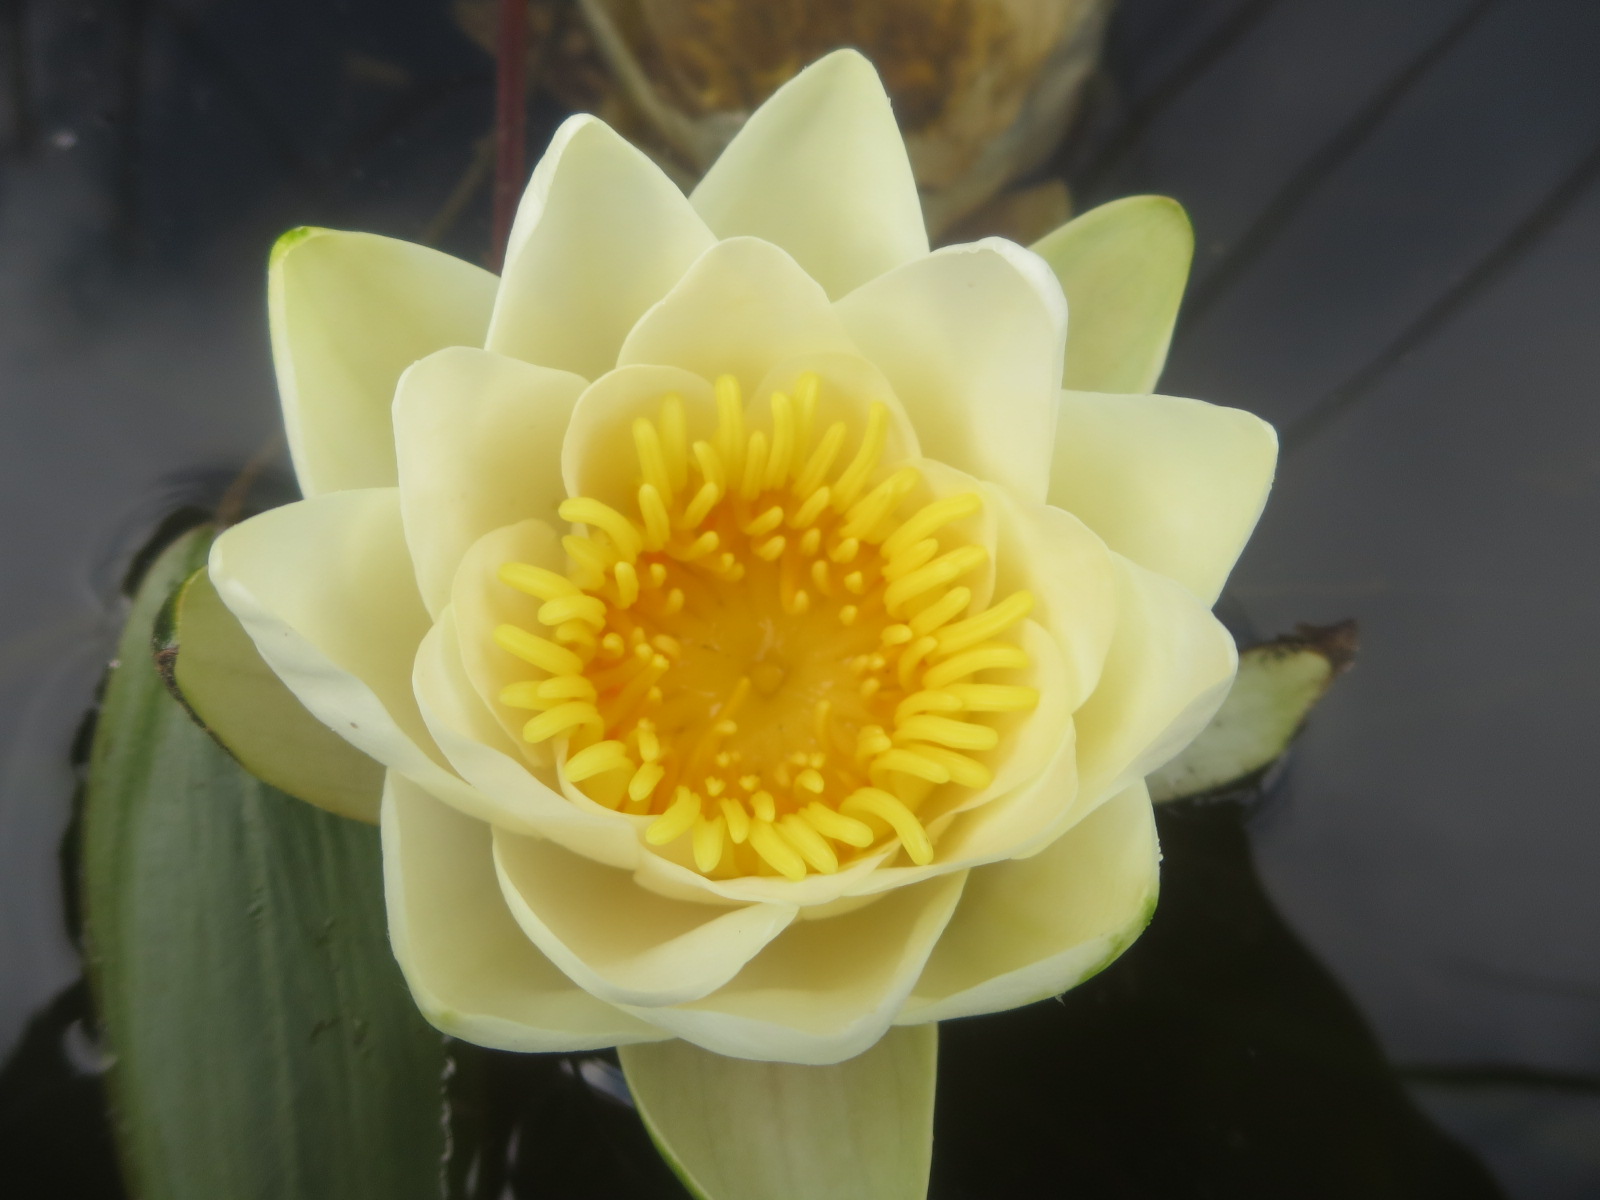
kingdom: Plantae
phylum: Tracheophyta
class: Magnoliopsida
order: Nymphaeales
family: Nymphaeaceae
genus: Nymphaea
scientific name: Nymphaea candida
